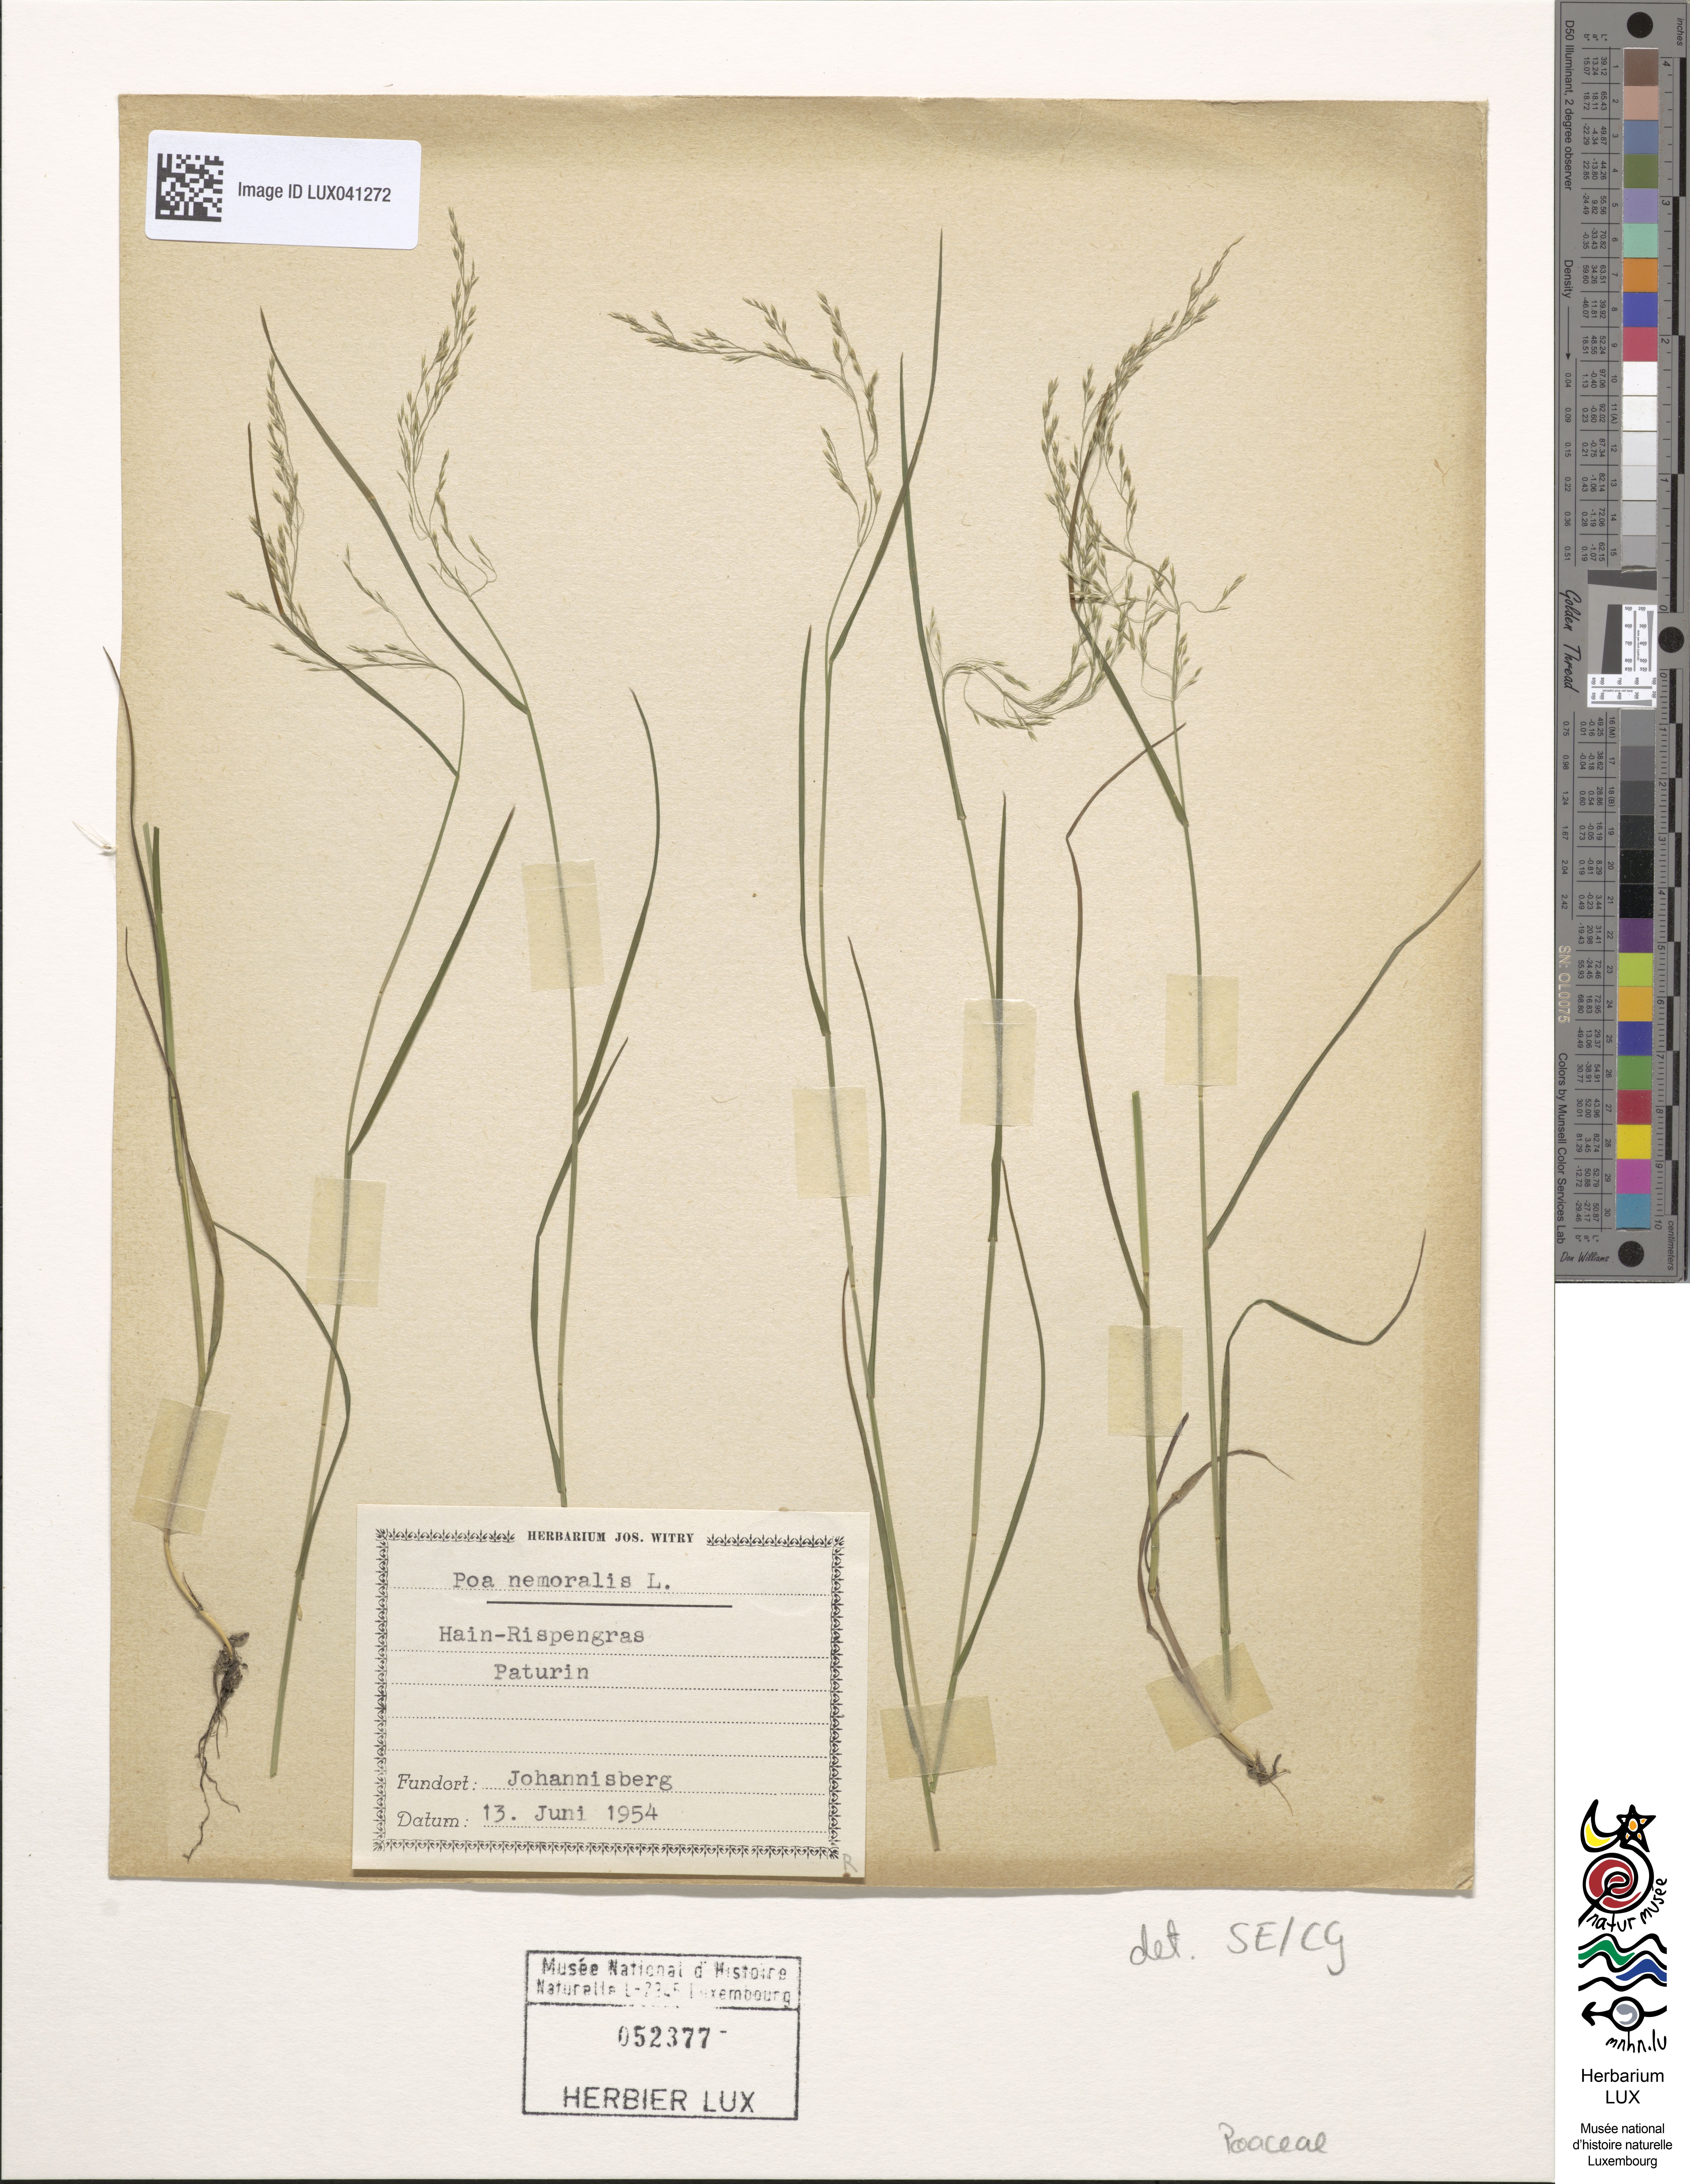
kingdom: Plantae
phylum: Tracheophyta
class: Liliopsida
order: Poales
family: Poaceae
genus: Poa
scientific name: Poa nemoralis
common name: Wood bluegrass
